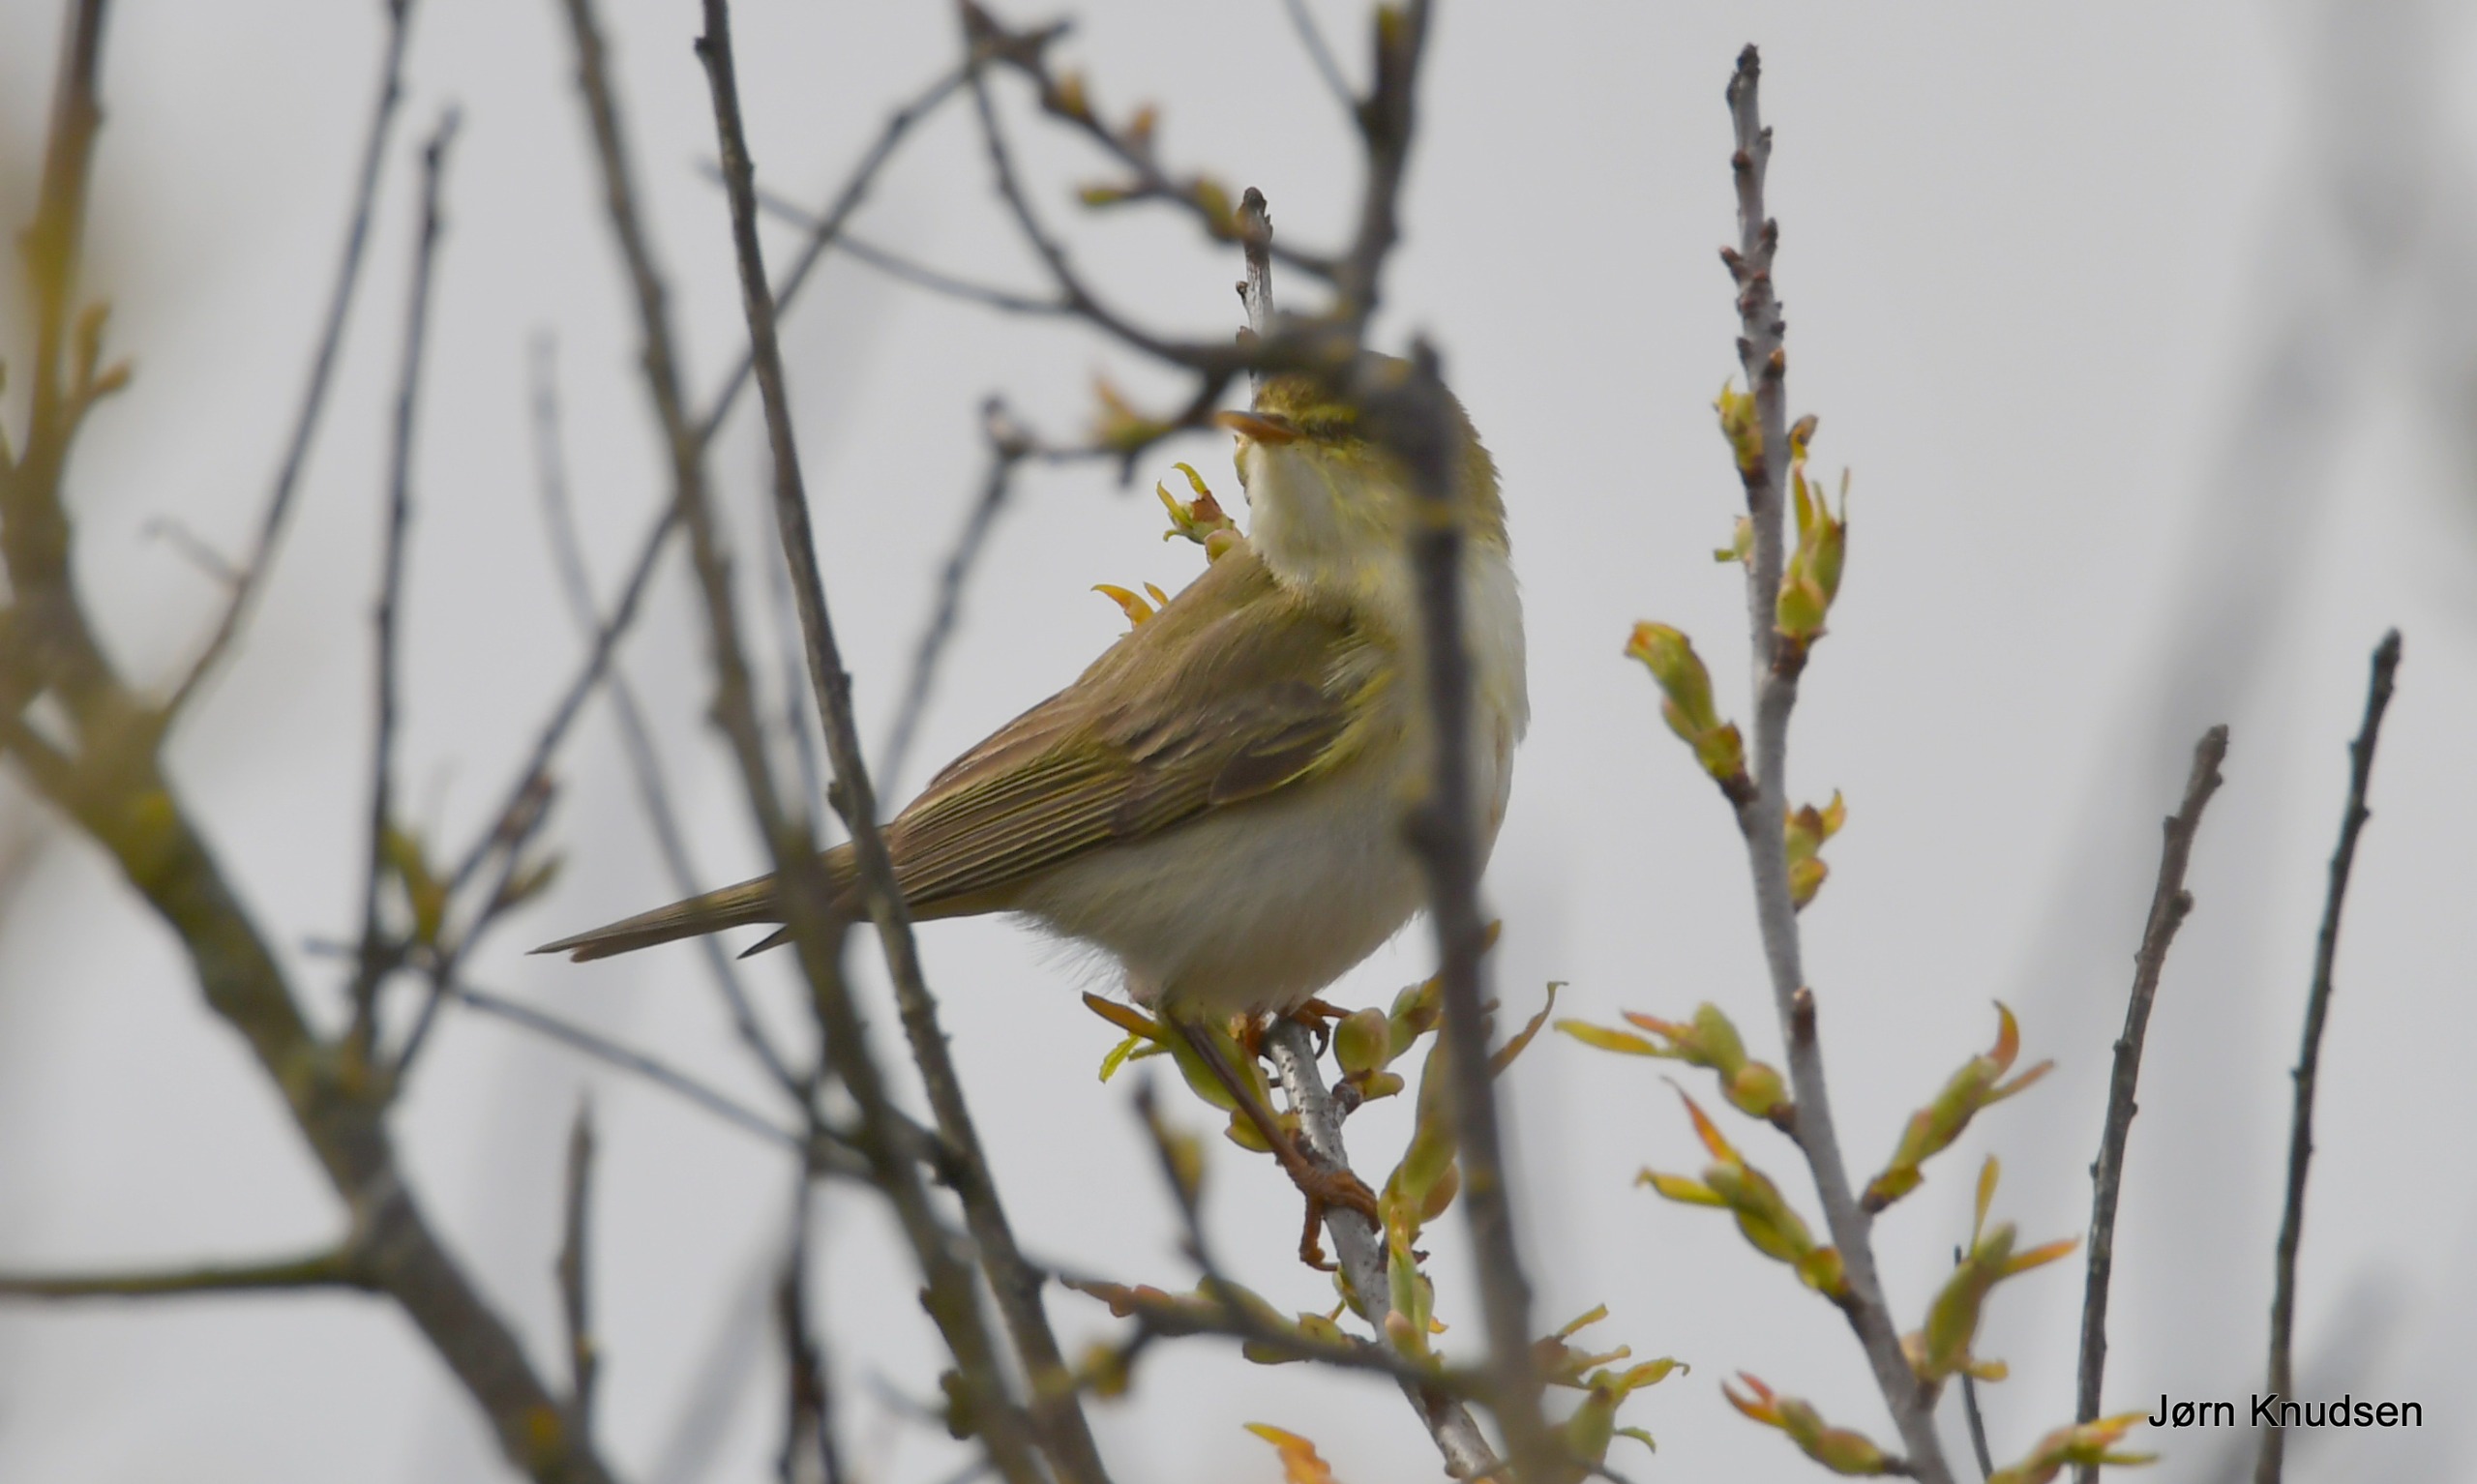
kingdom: Animalia
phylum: Chordata
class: Aves
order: Passeriformes
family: Phylloscopidae
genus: Phylloscopus
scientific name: Phylloscopus trochilus
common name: Løvsanger
